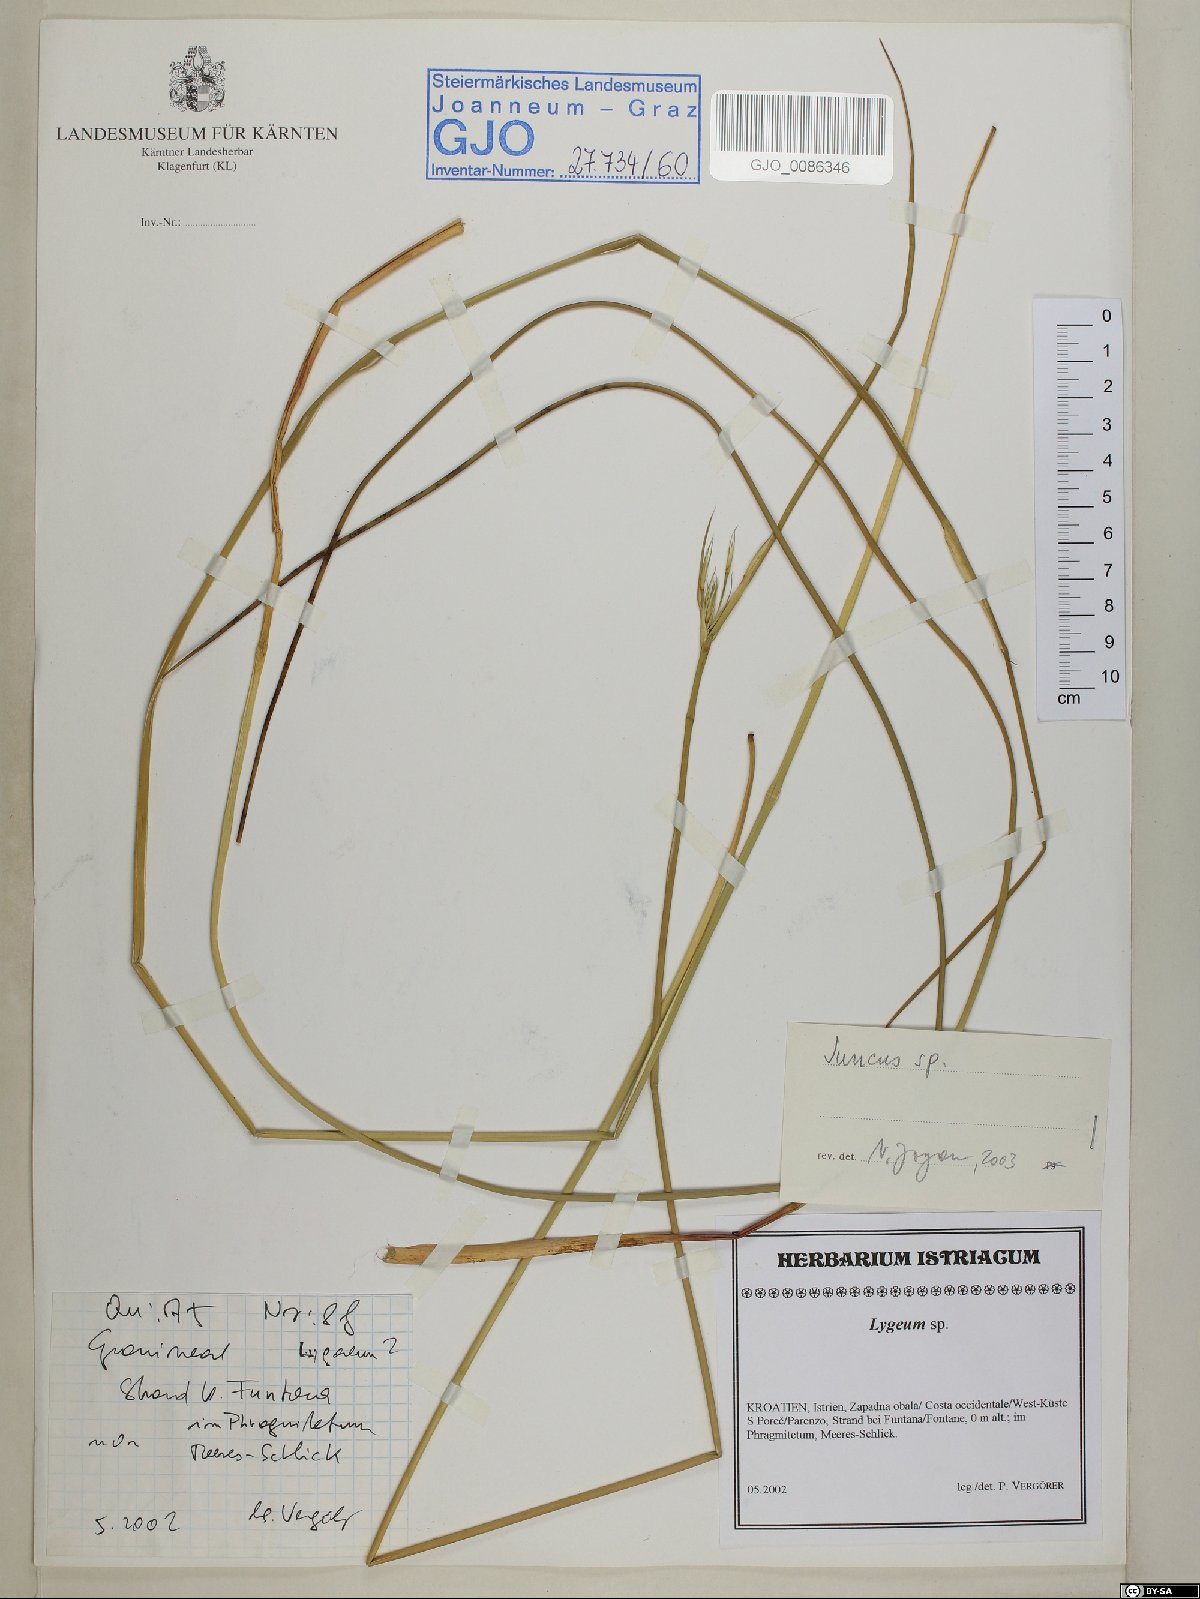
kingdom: Plantae
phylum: Tracheophyta
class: Liliopsida
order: Poales
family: Juncaceae
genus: Juncus
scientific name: Juncus
